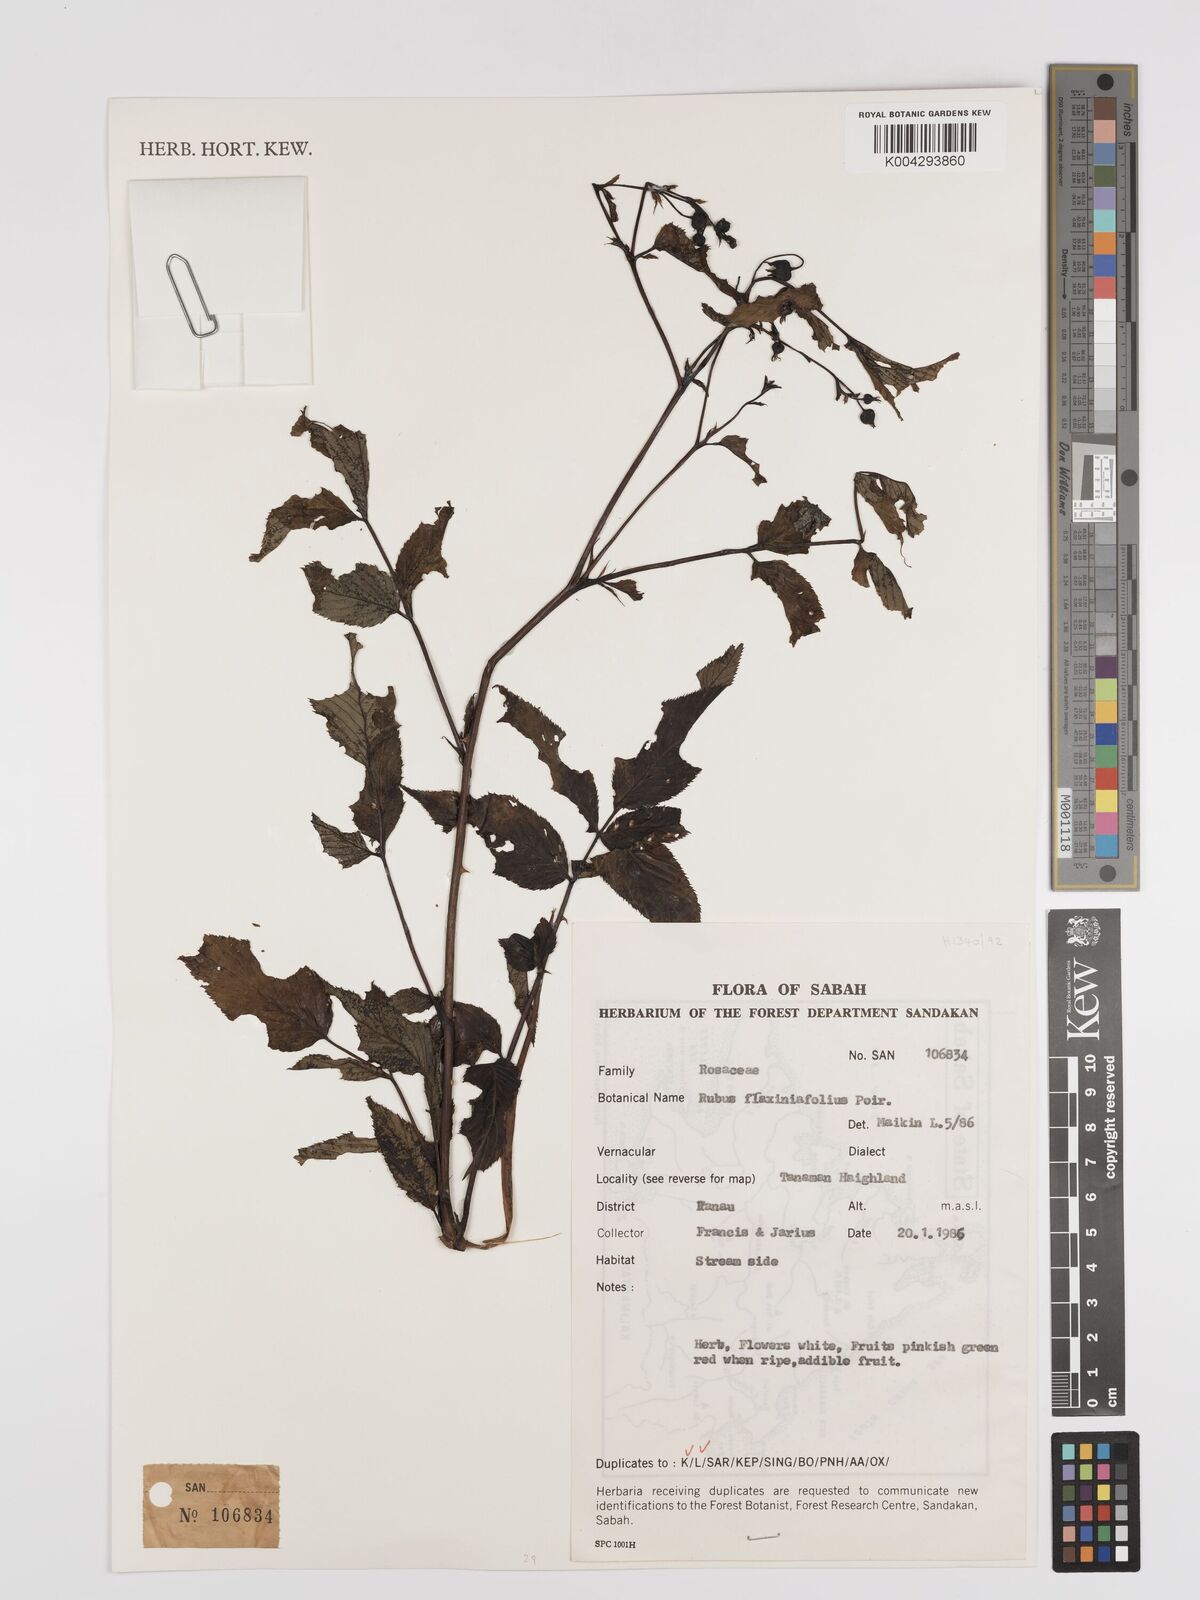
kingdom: Plantae
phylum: Tracheophyta
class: Magnoliopsida
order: Rosales
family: Rosaceae
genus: Rubus
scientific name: Rubus fraxinifolius
